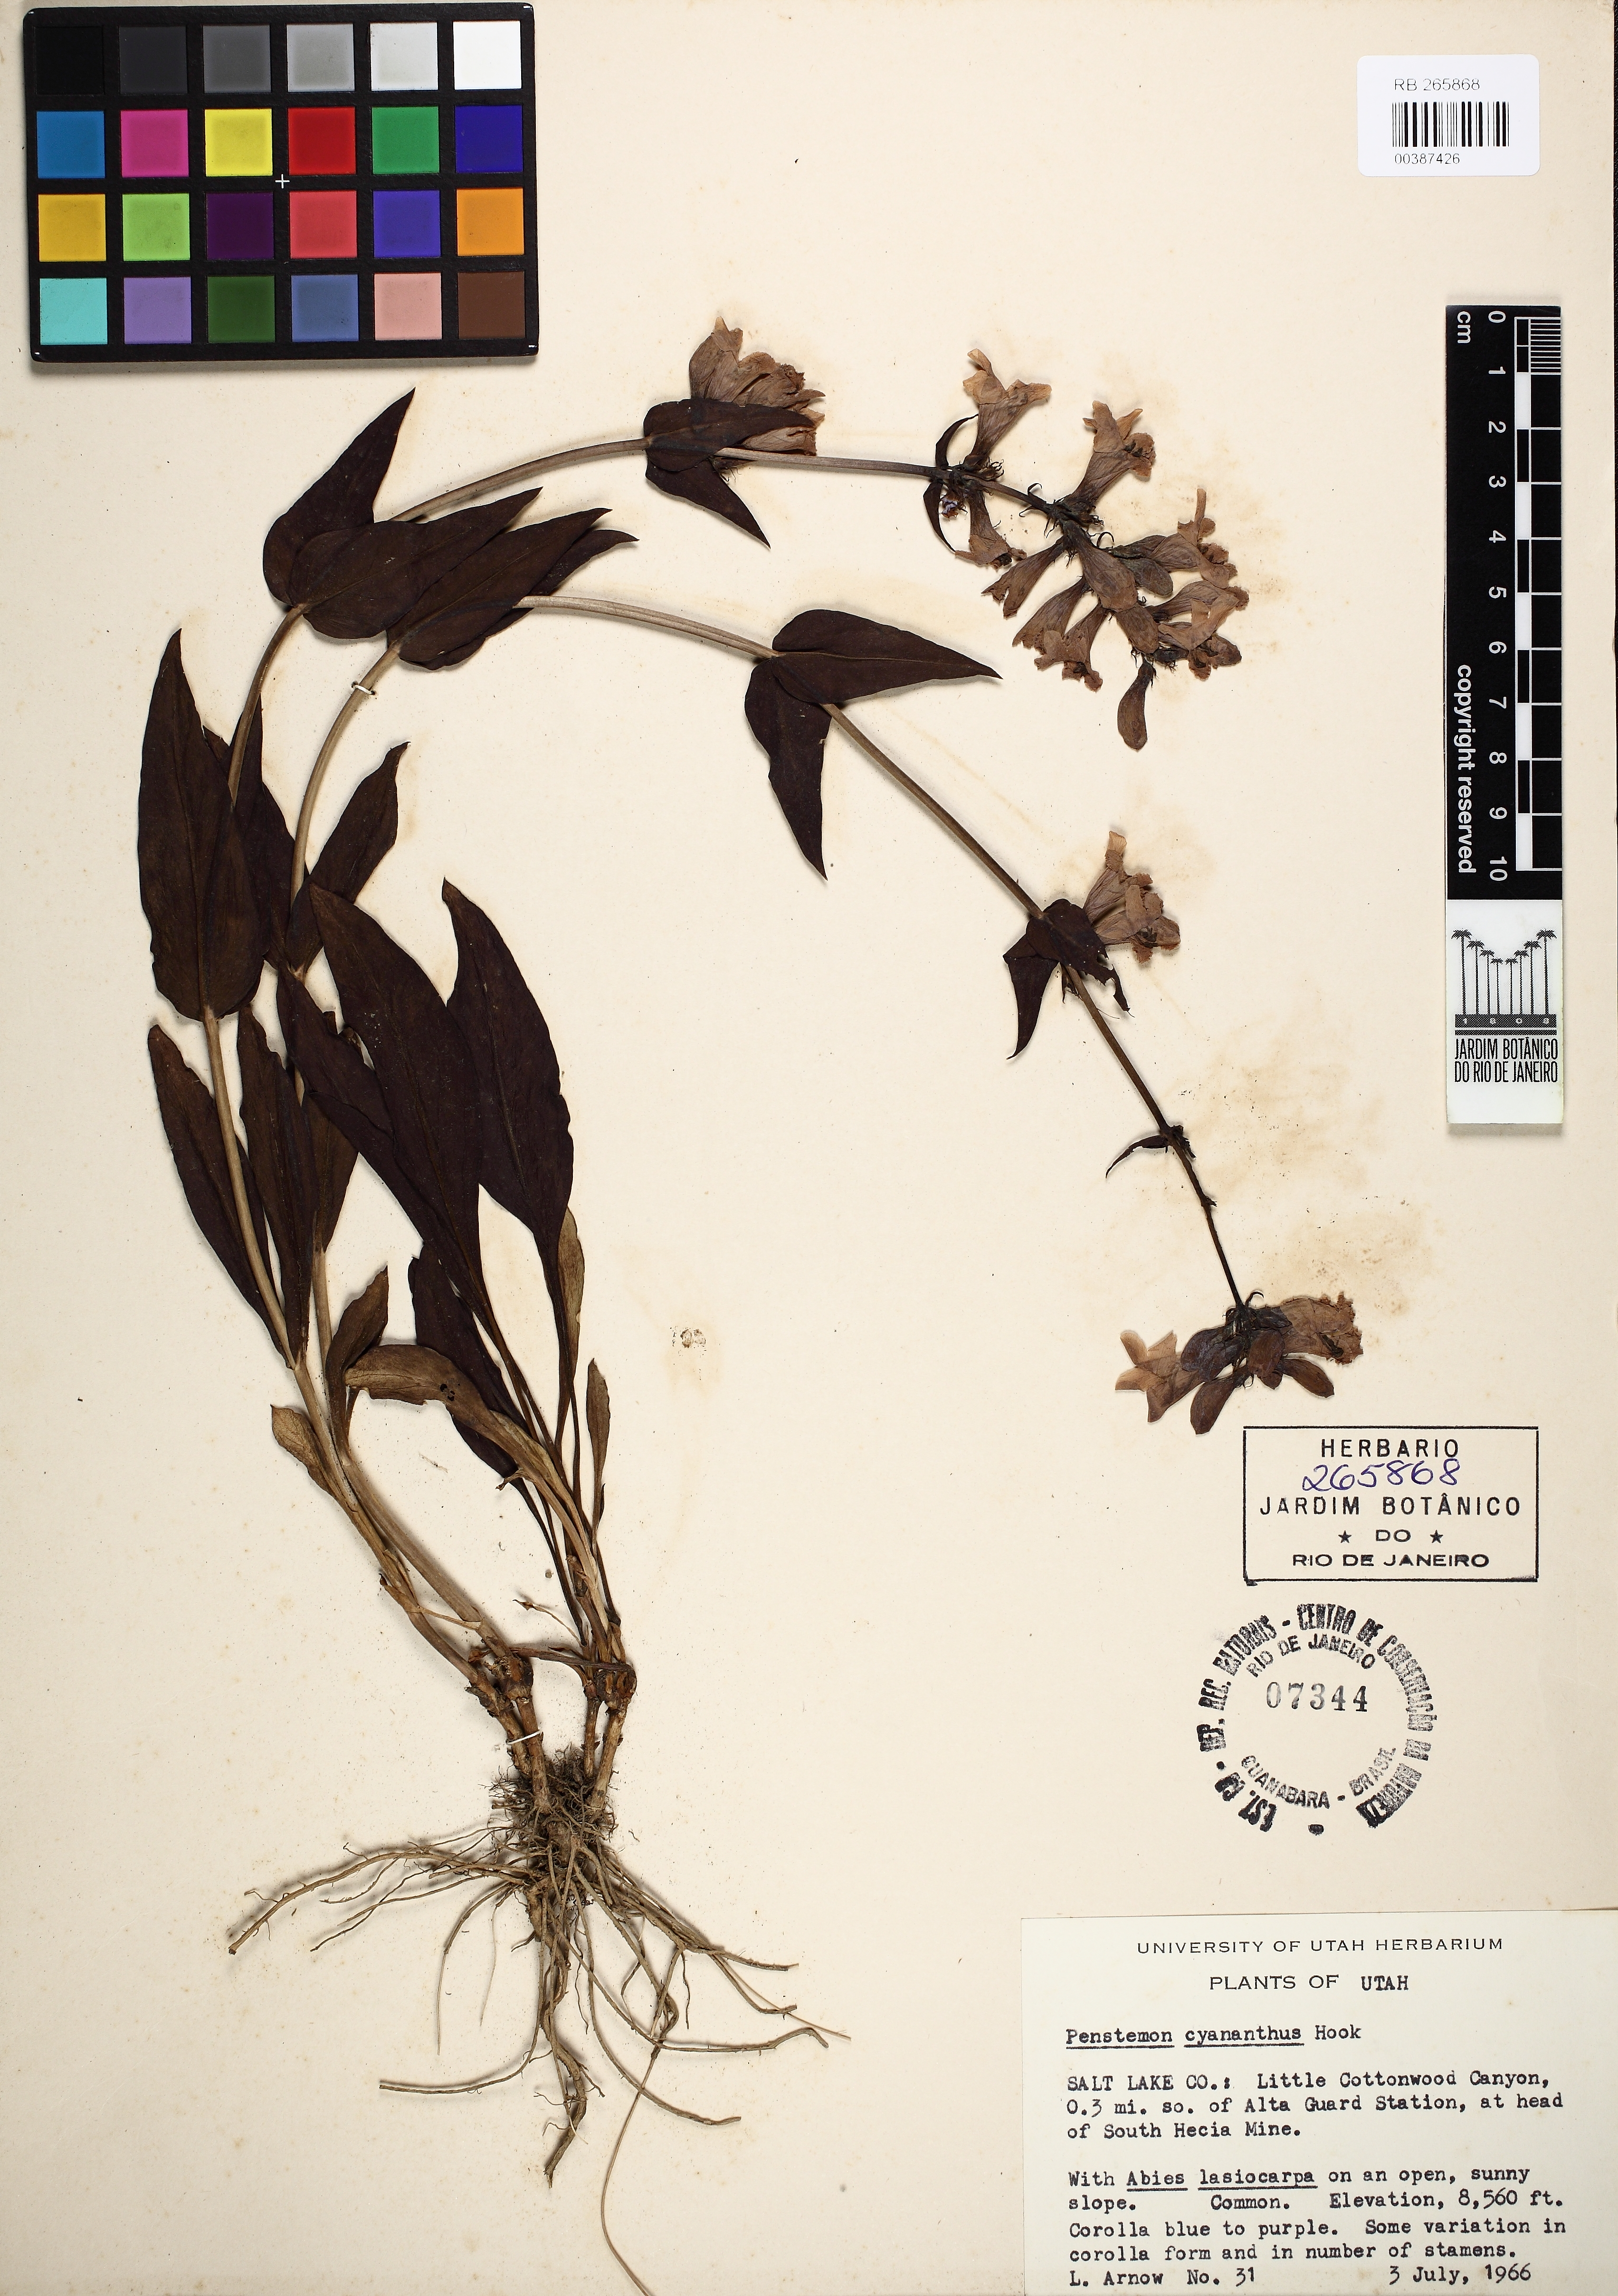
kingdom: Plantae
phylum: Tracheophyta
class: Magnoliopsida
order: Lamiales
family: Scrophulariaceae
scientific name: Scrophulariaceae
